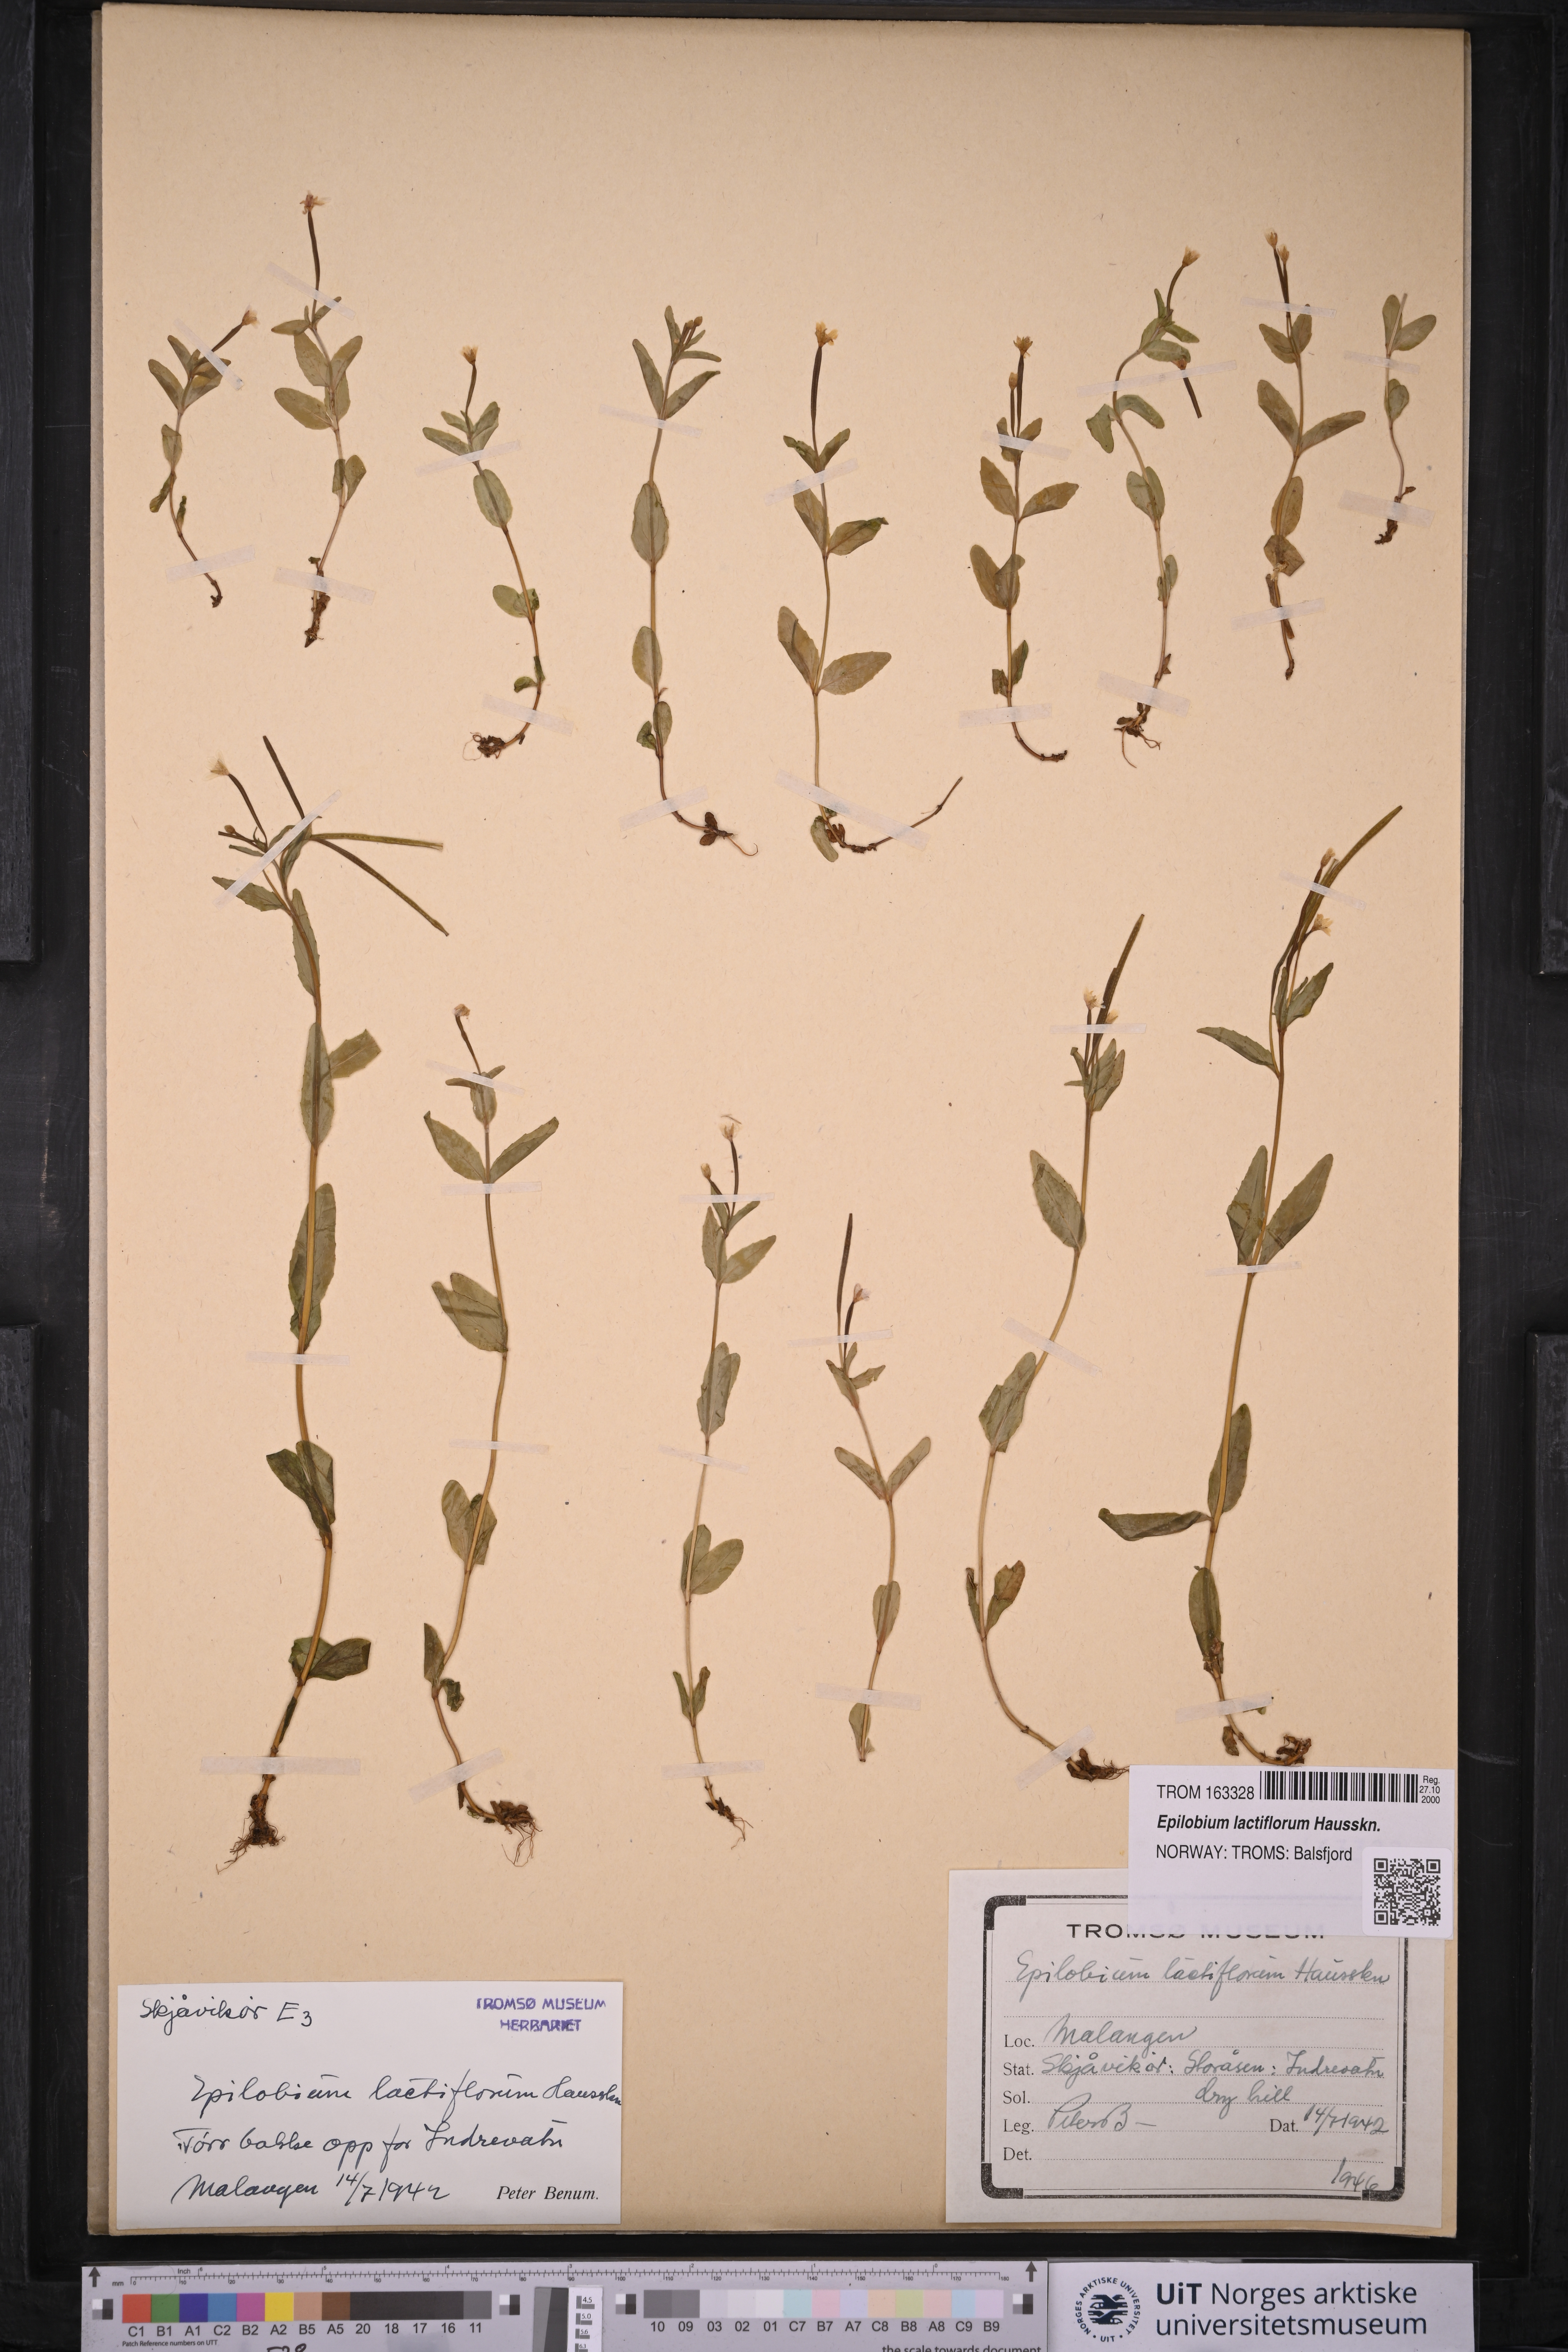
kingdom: Plantae
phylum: Tracheophyta
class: Magnoliopsida
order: Myrtales
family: Onagraceae
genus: Epilobium
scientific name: Epilobium lactiflorum
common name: Milkflower willowherb
